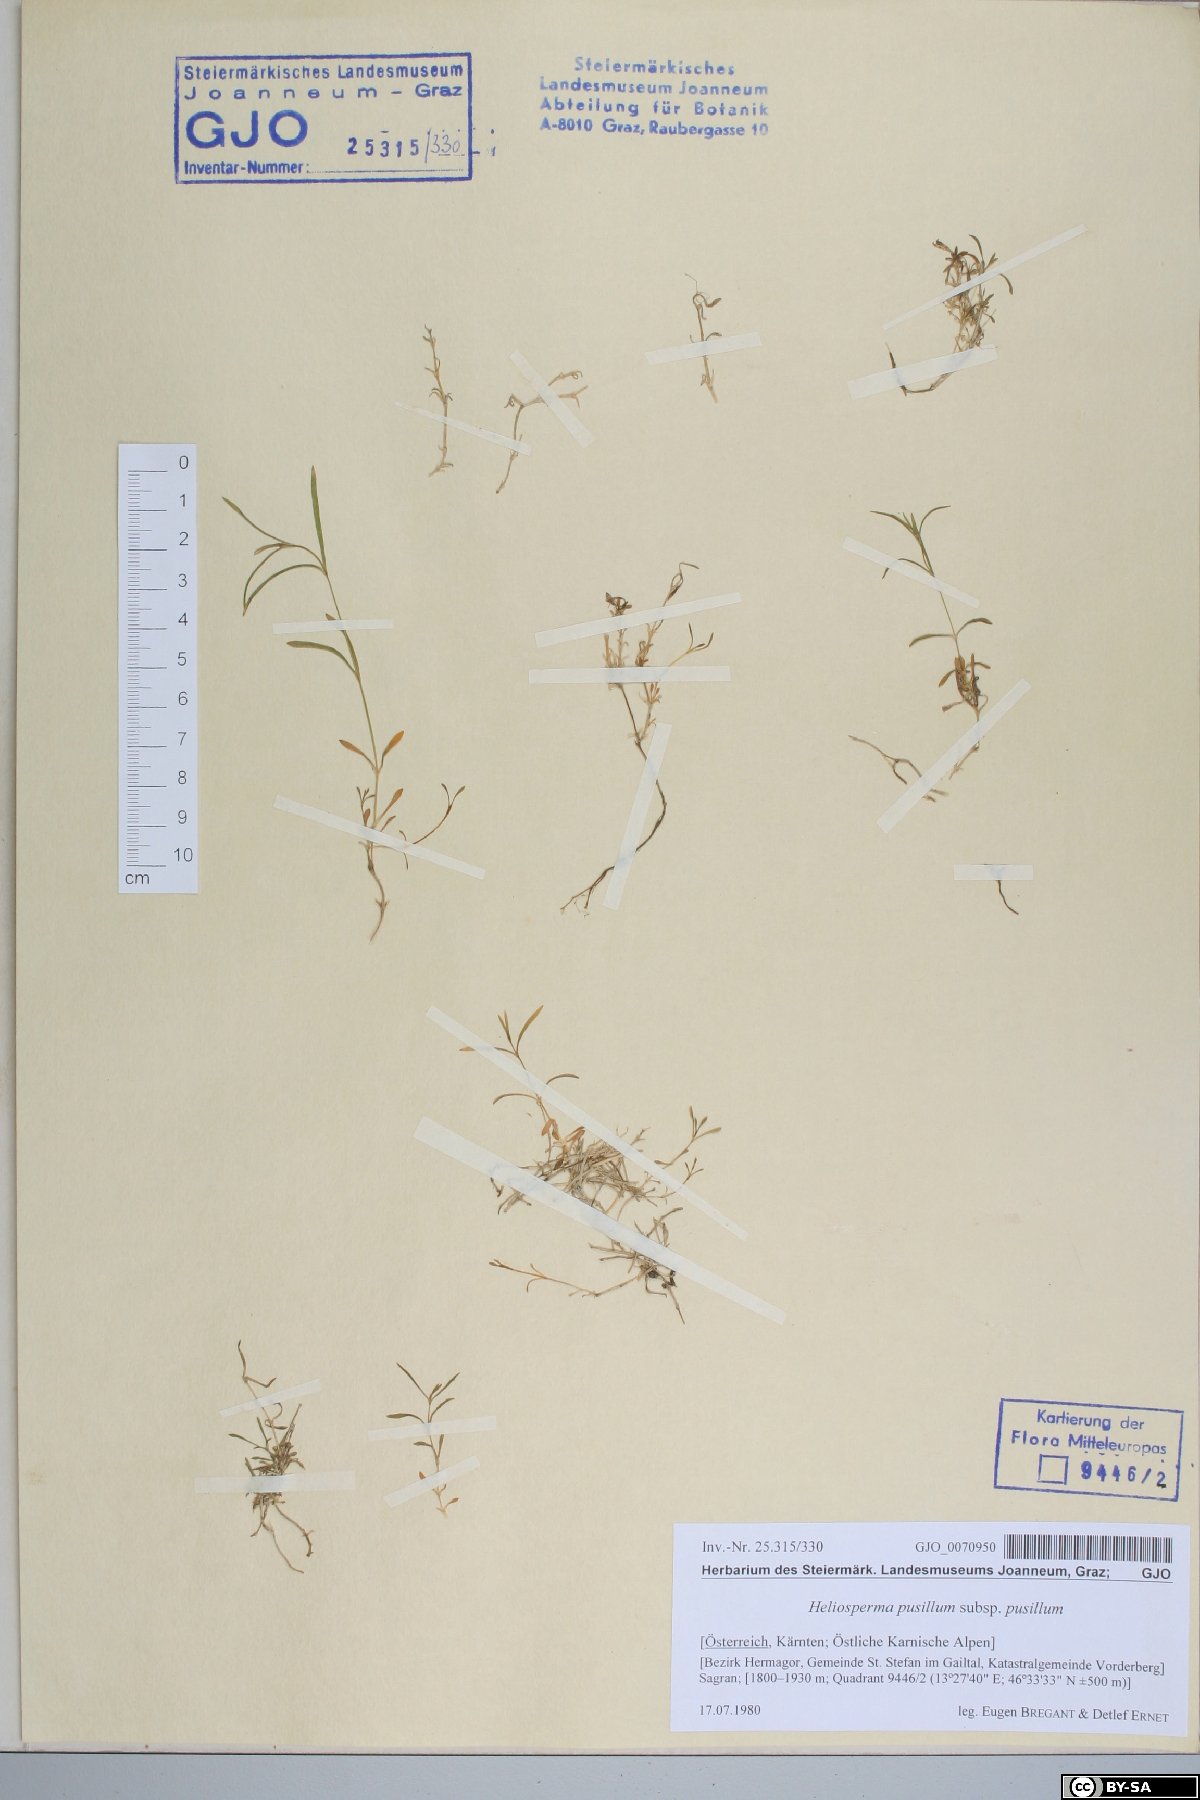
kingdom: Plantae
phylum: Tracheophyta
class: Magnoliopsida
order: Caryophyllales
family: Caryophyllaceae
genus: Heliosperma
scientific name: Heliosperma pusillum
